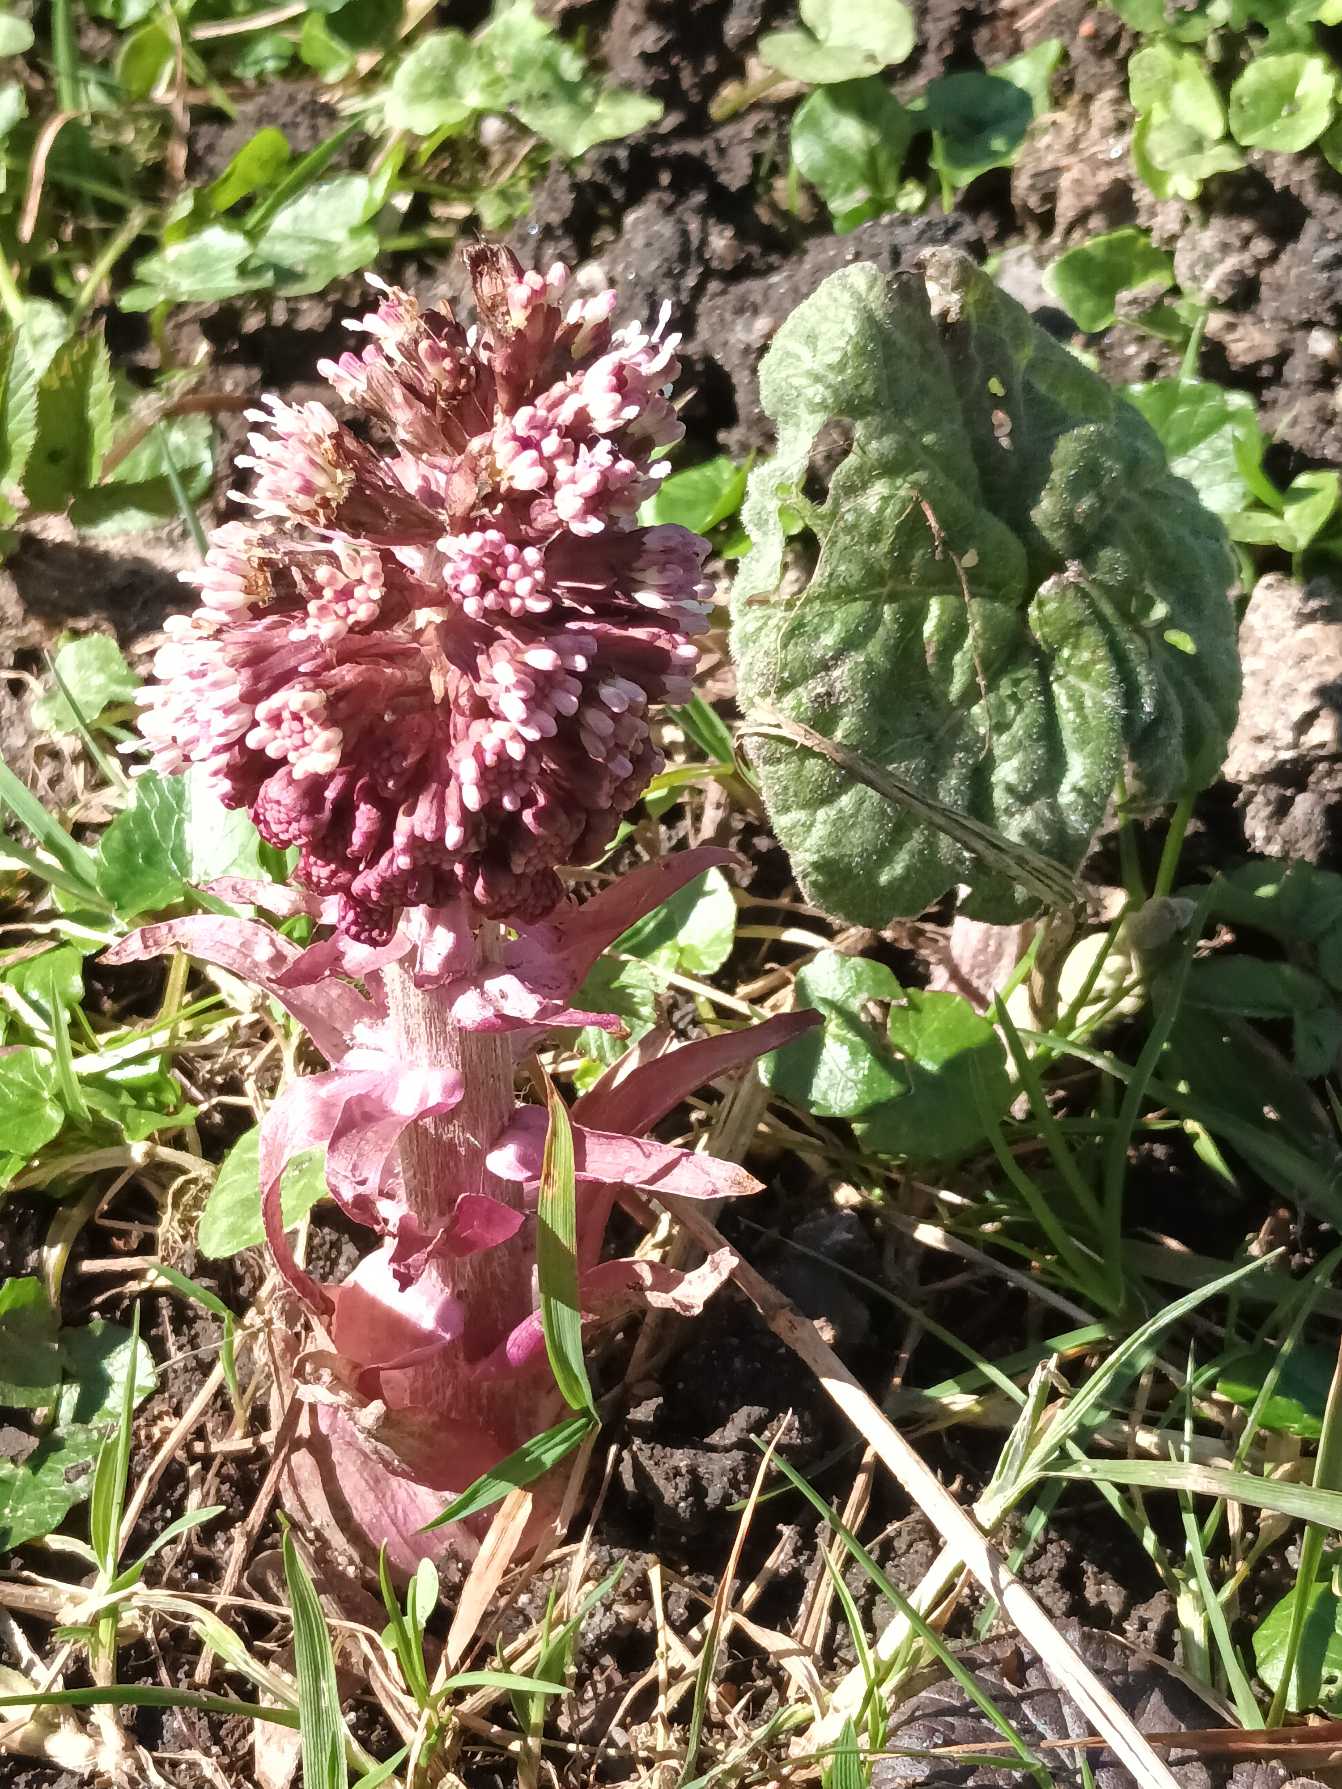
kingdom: Plantae
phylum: Tracheophyta
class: Magnoliopsida
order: Asterales
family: Asteraceae
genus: Petasites
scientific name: Petasites hybridus
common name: Rød hestehov
